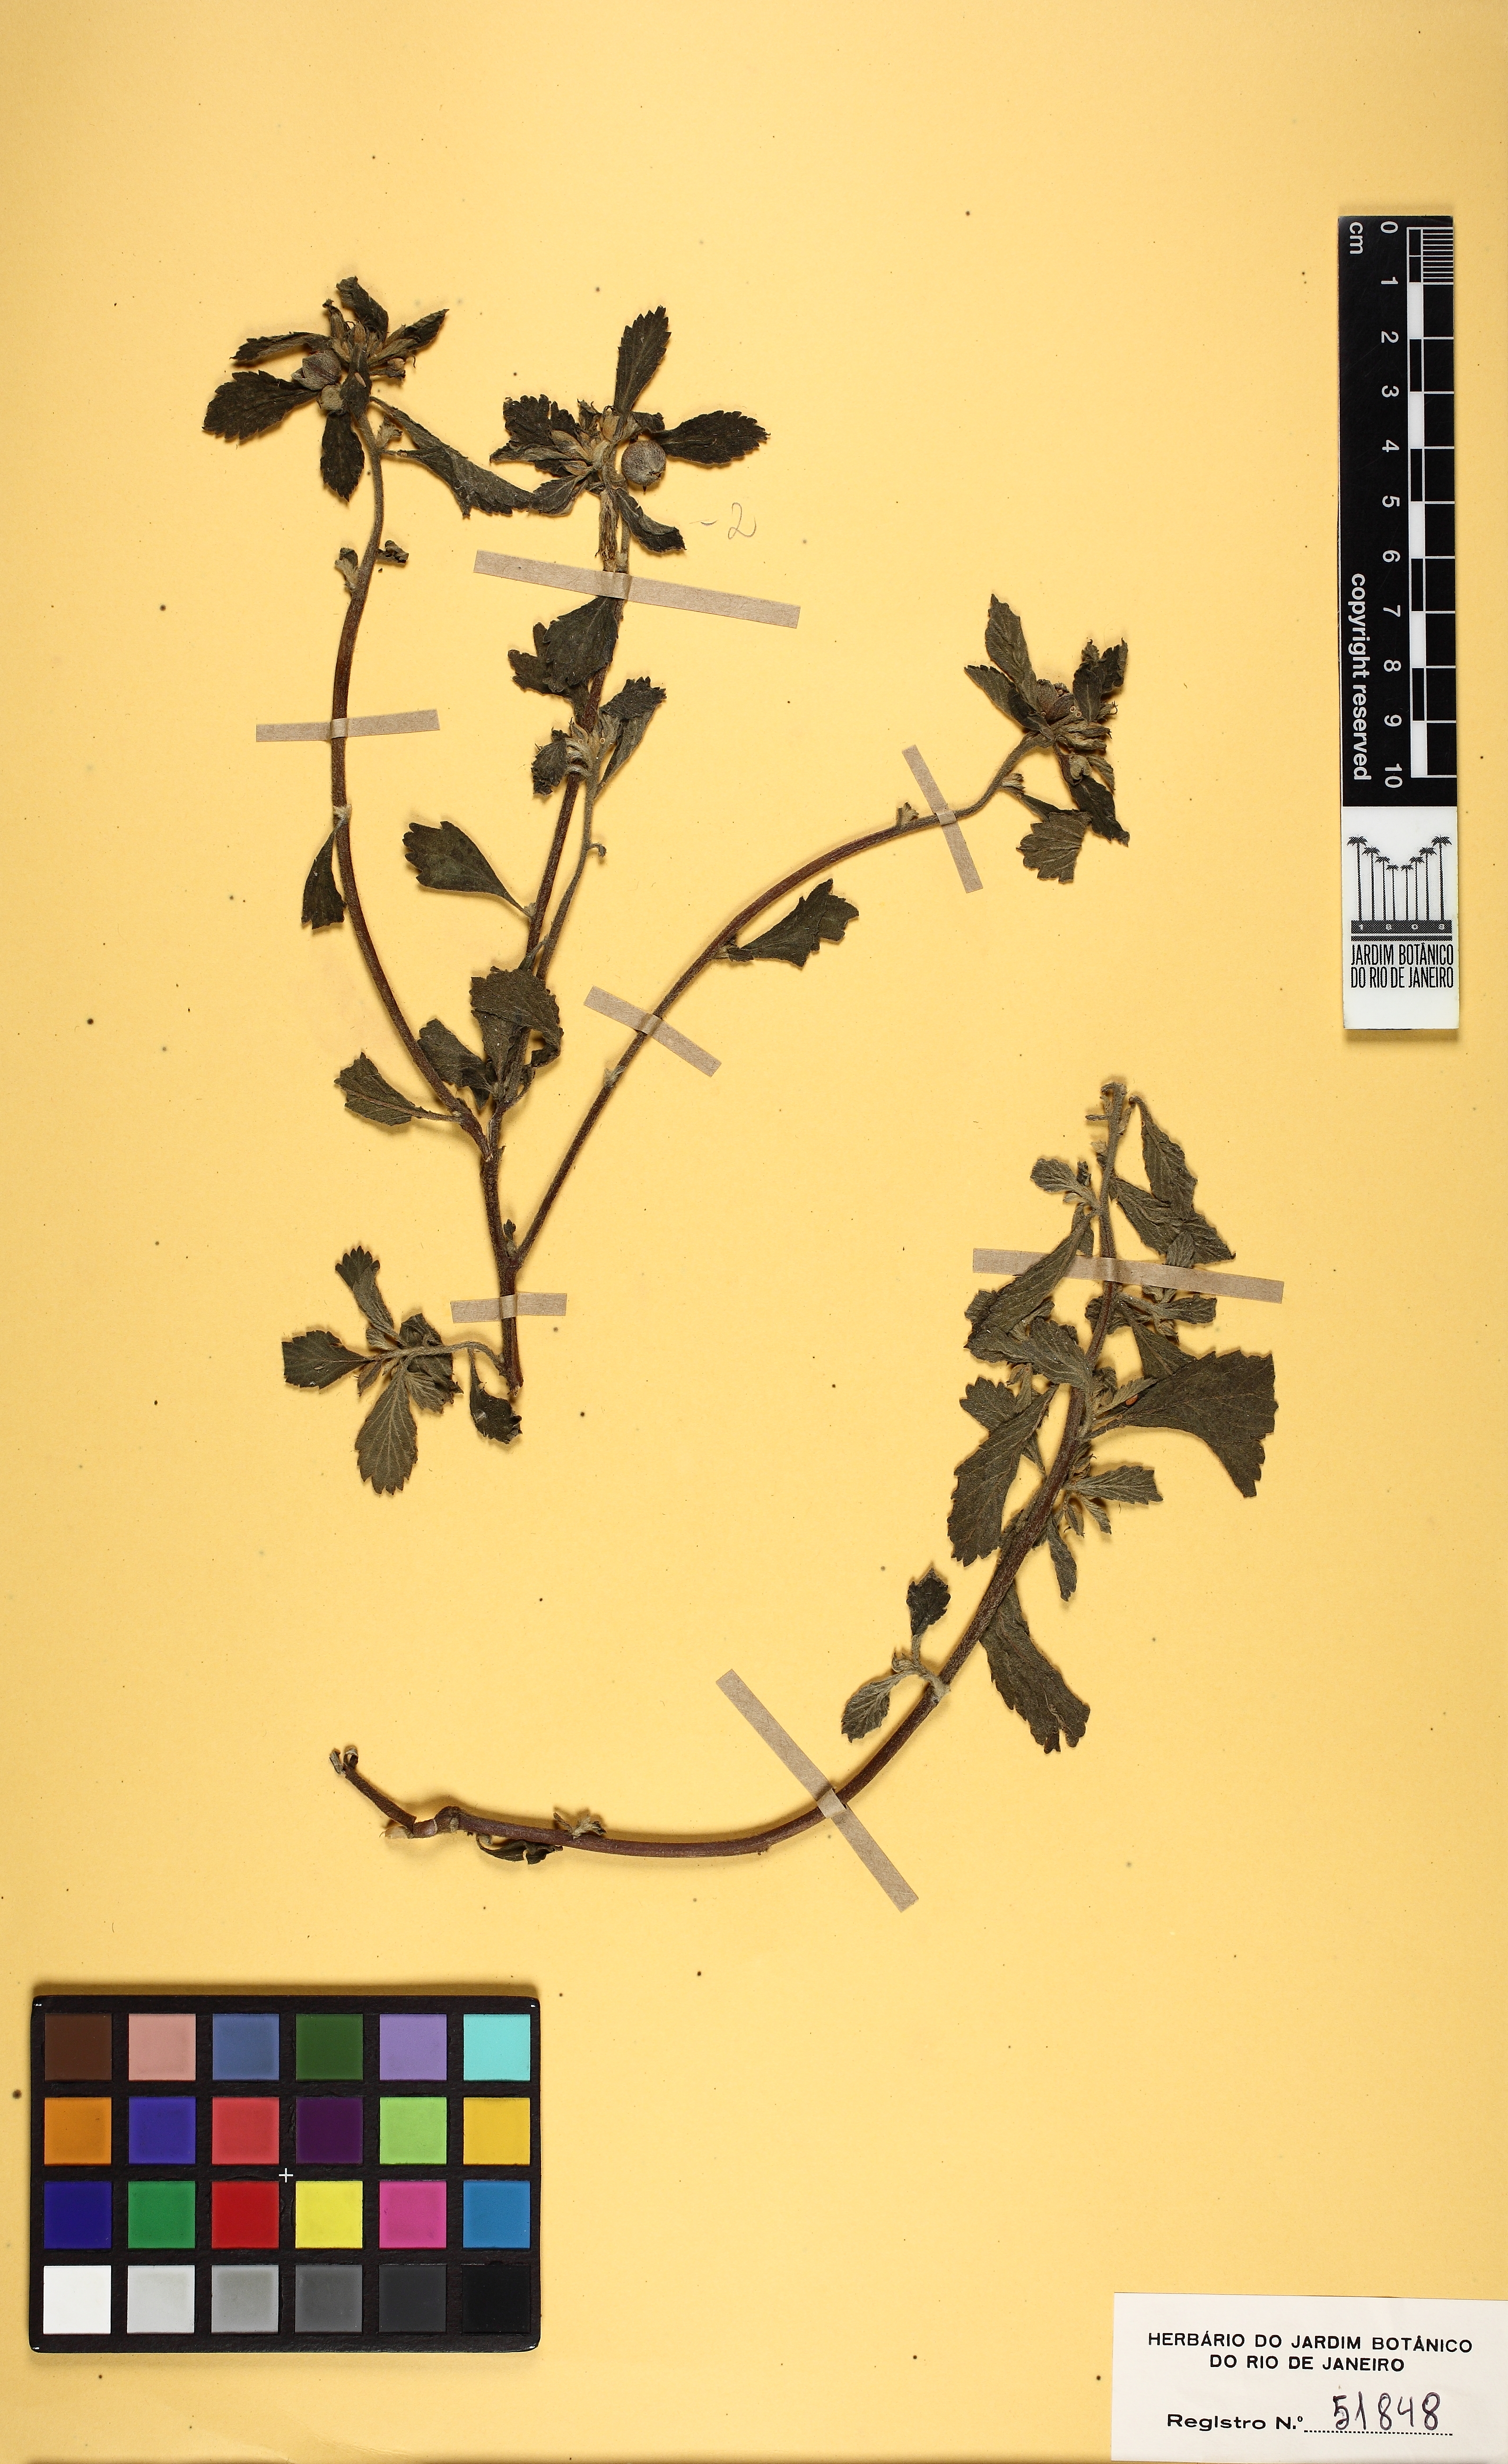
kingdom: Plantae
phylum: Tracheophyta
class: Magnoliopsida
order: Malpighiales
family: Turneraceae
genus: Turnera
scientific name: Turnera cuneiformis
